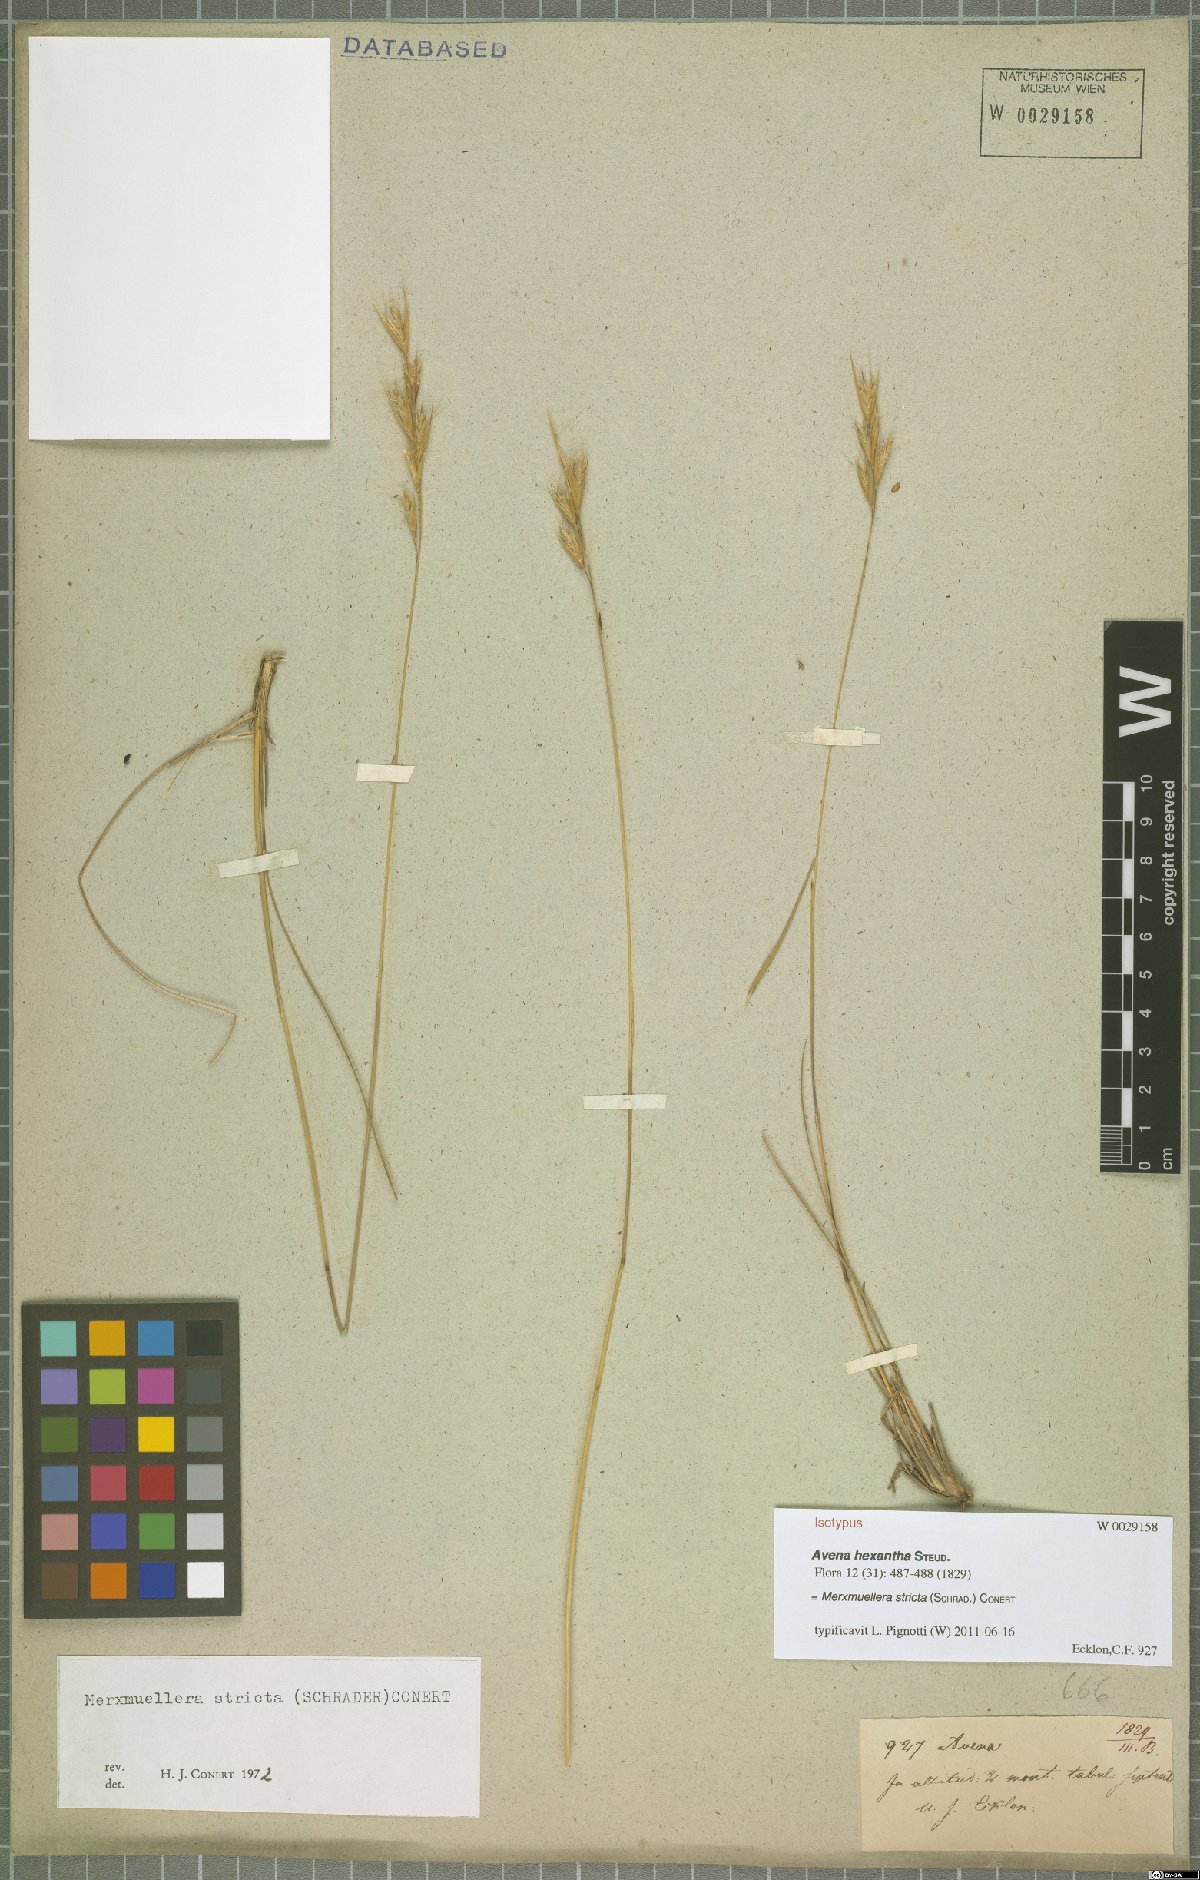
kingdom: Plantae
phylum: Tracheophyta
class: Liliopsida
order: Poales
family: Poaceae
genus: Tenaxia
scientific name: Tenaxia stricta
